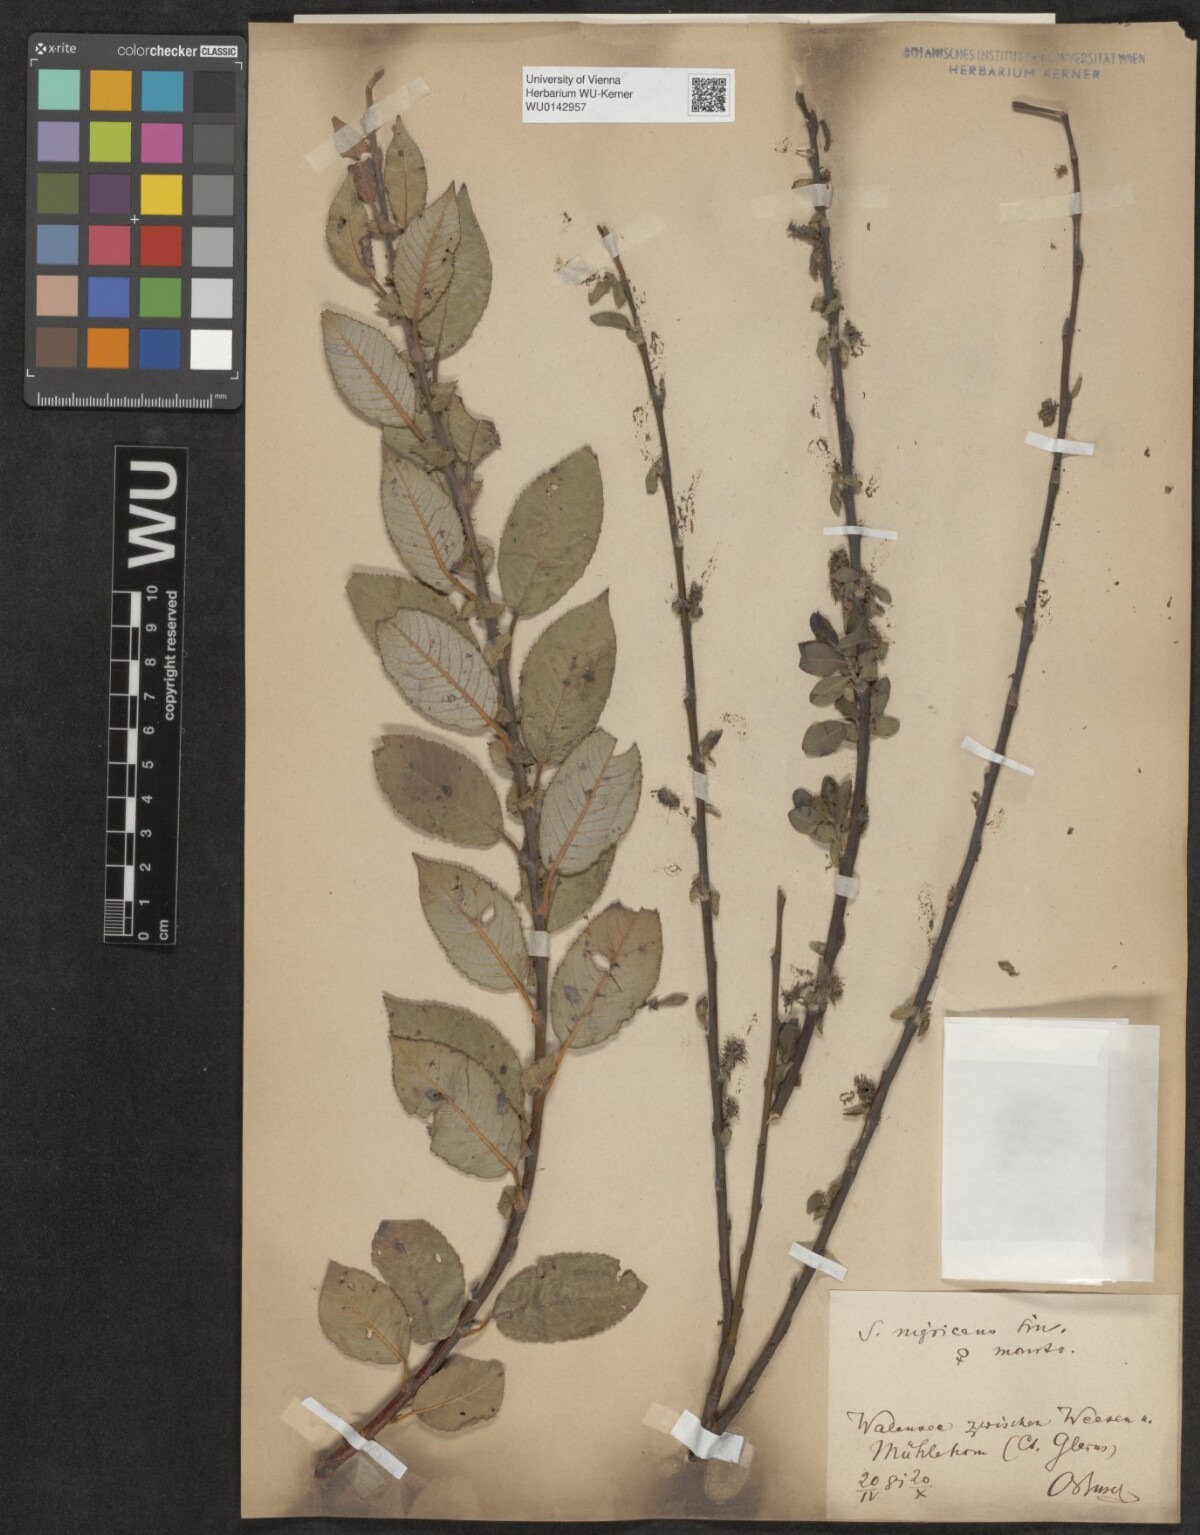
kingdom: Plantae
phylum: Tracheophyta
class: Magnoliopsida
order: Malpighiales
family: Salicaceae
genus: Salix
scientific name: Salix myrsinifolia
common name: Dark-leaved willow
